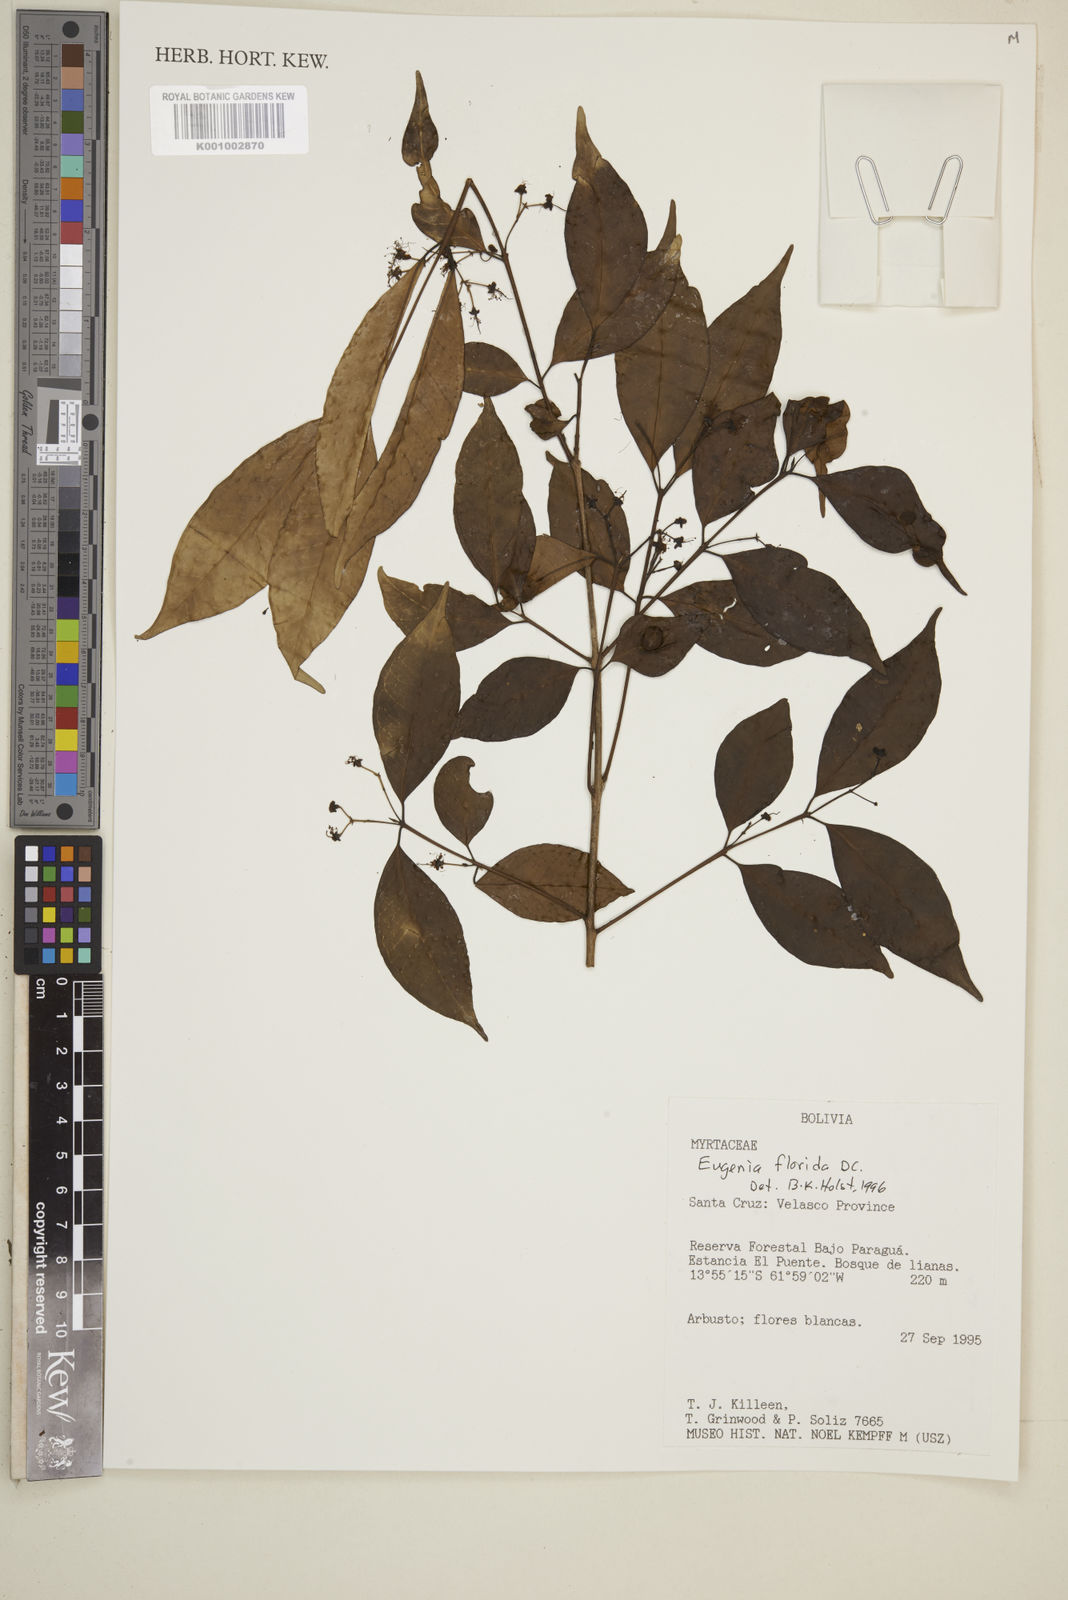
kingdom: Plantae
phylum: Tracheophyta
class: Magnoliopsida
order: Myrtales
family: Myrtaceae
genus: Eugenia
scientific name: Eugenia florida
